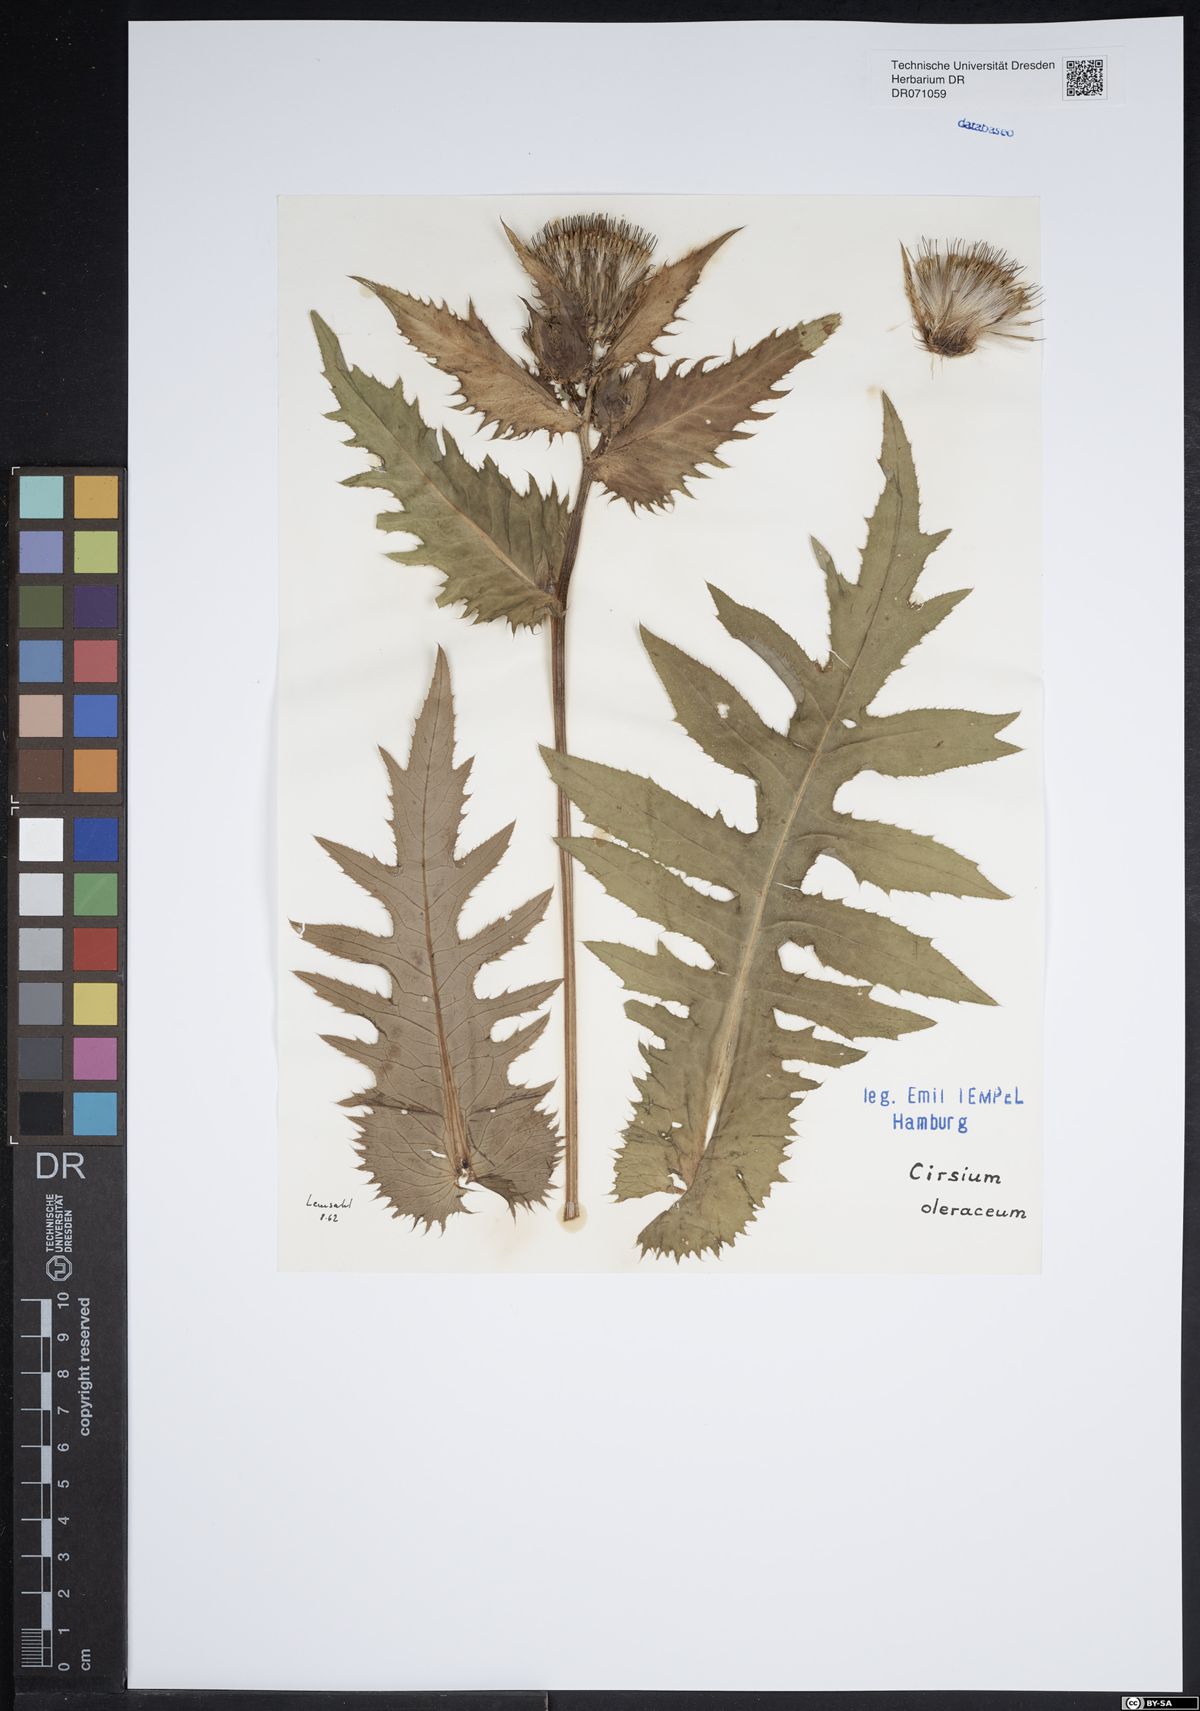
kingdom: Plantae
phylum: Tracheophyta
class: Magnoliopsida
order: Asterales
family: Asteraceae
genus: Cirsium
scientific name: Cirsium oleraceum
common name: Cabbage thistle
